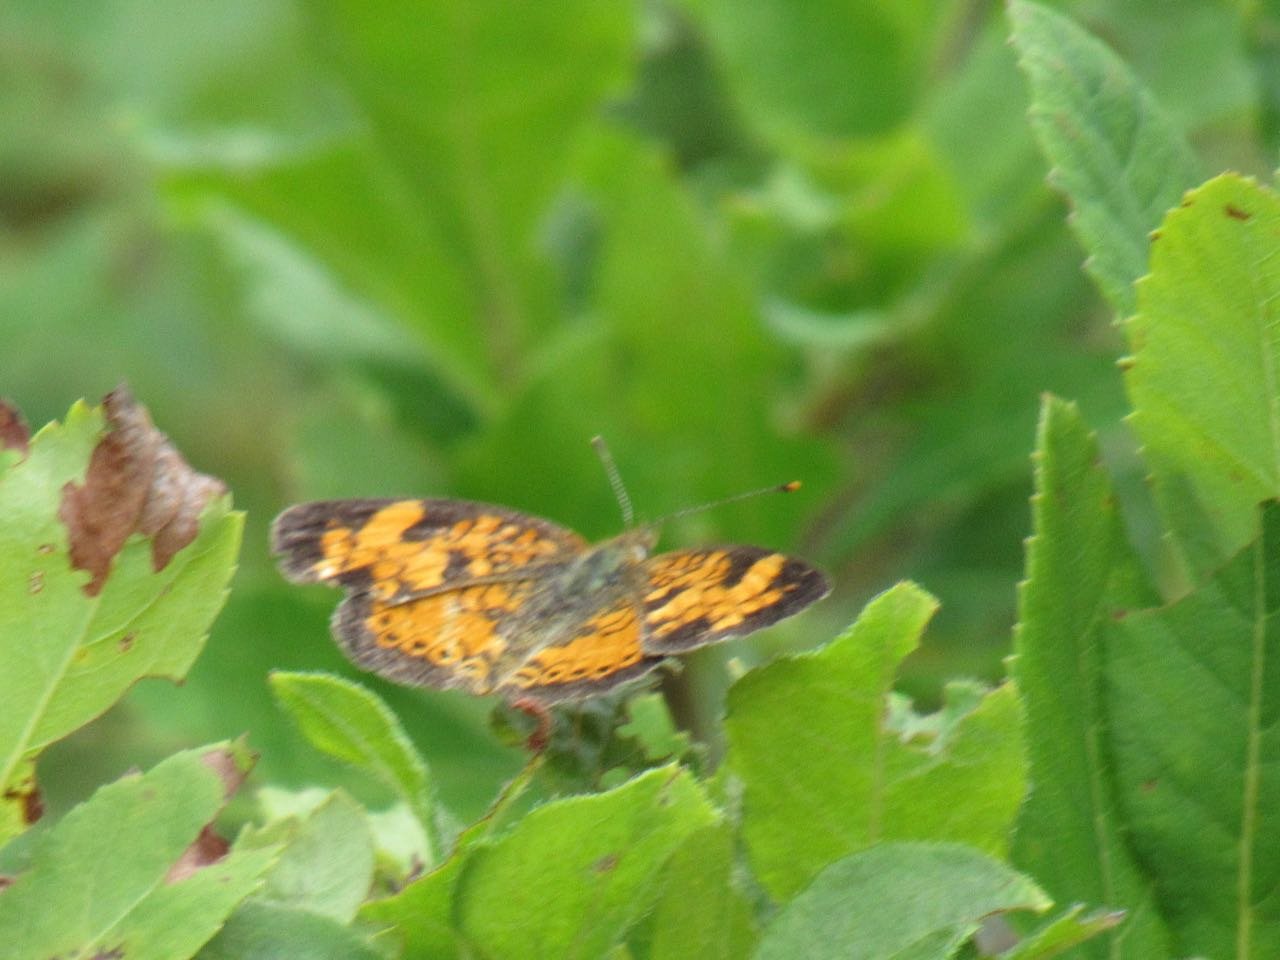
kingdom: Animalia
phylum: Arthropoda
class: Insecta
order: Lepidoptera
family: Nymphalidae
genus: Phyciodes
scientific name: Phyciodes
